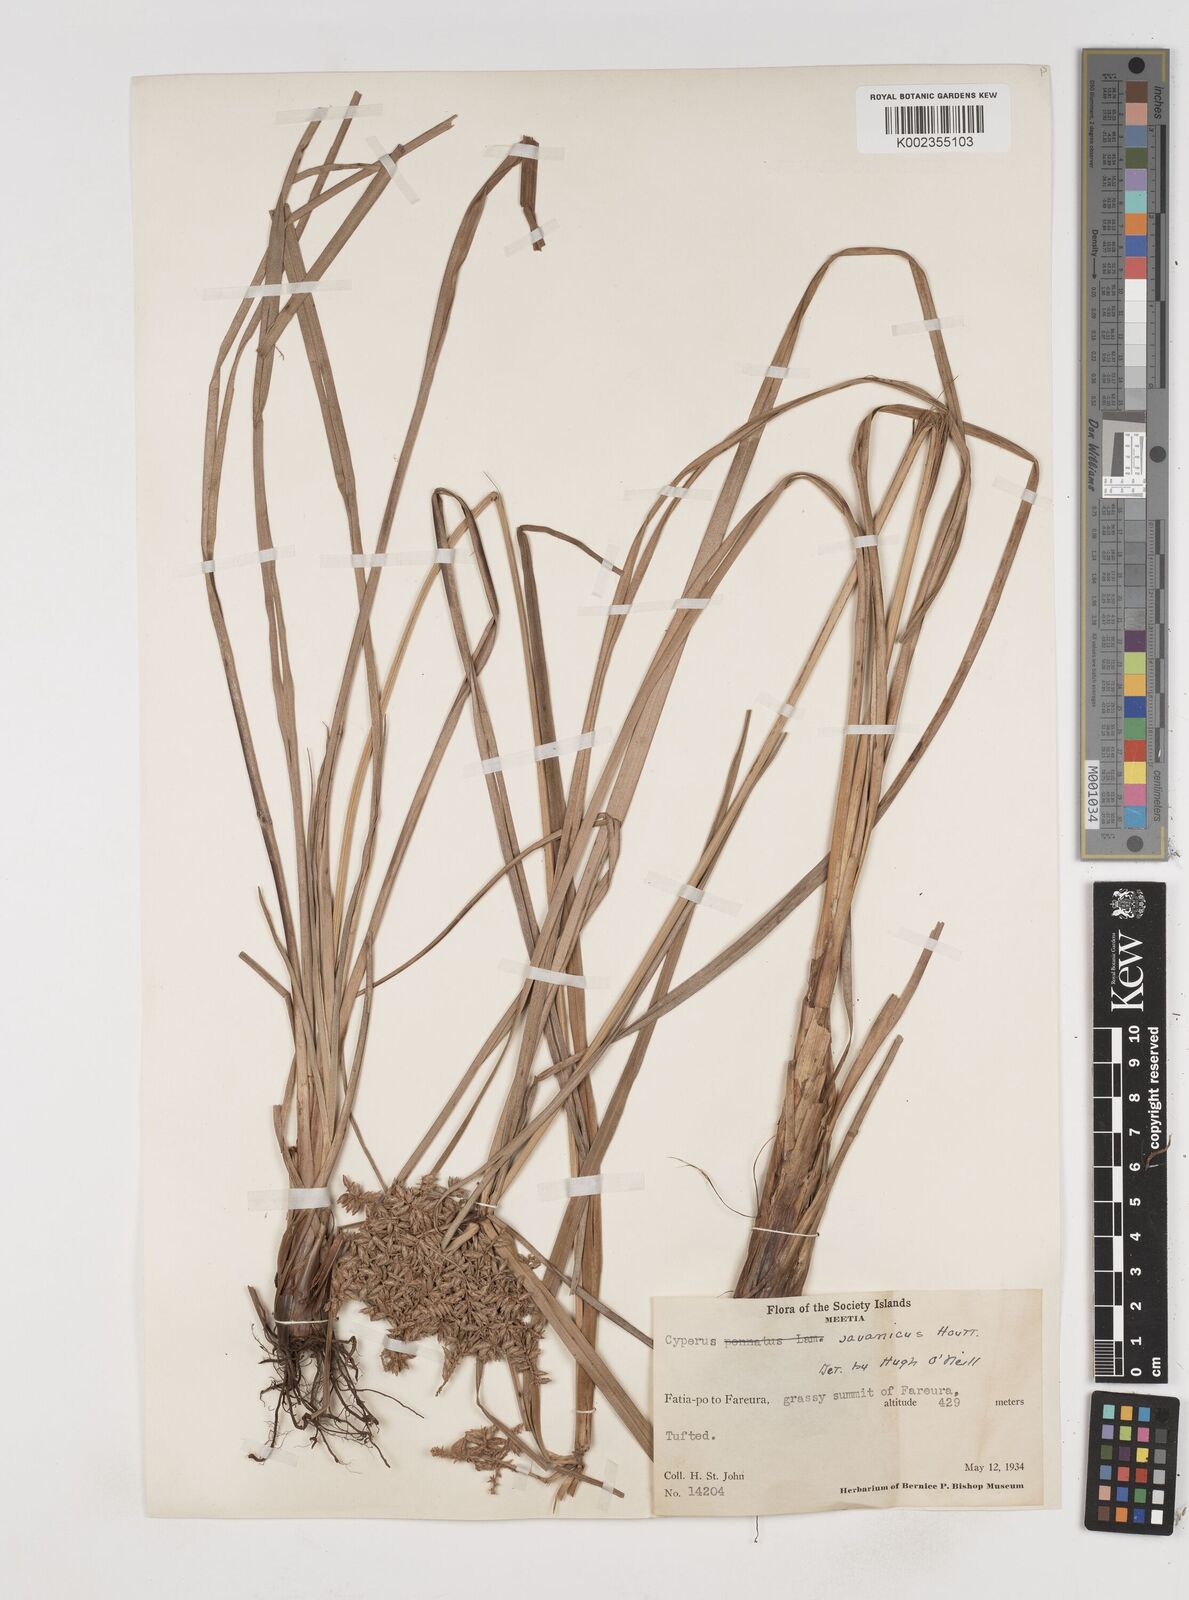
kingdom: Plantae
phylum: Tracheophyta
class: Liliopsida
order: Poales
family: Cyperaceae
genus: Cyperus
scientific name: Cyperus javanicus
